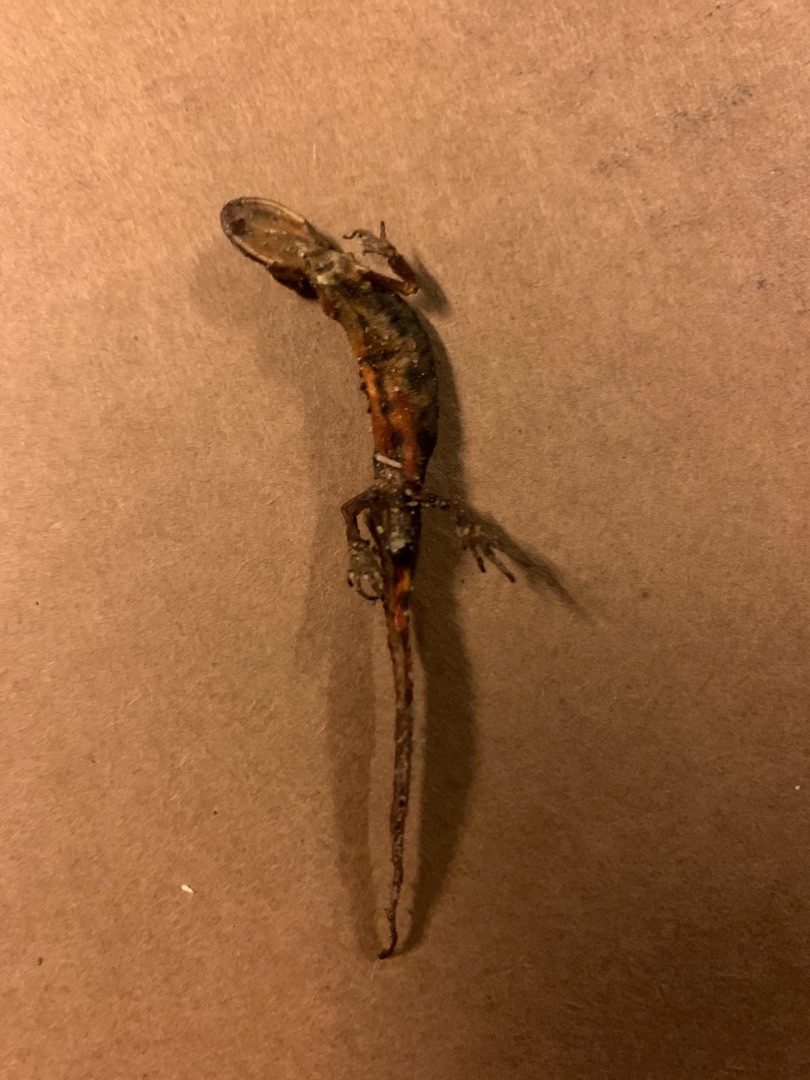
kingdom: Animalia
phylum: Chordata
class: Amphibia
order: Caudata
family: Salamandridae
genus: Lissotriton
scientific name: Lissotriton vulgaris
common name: Lille vandsalamander
